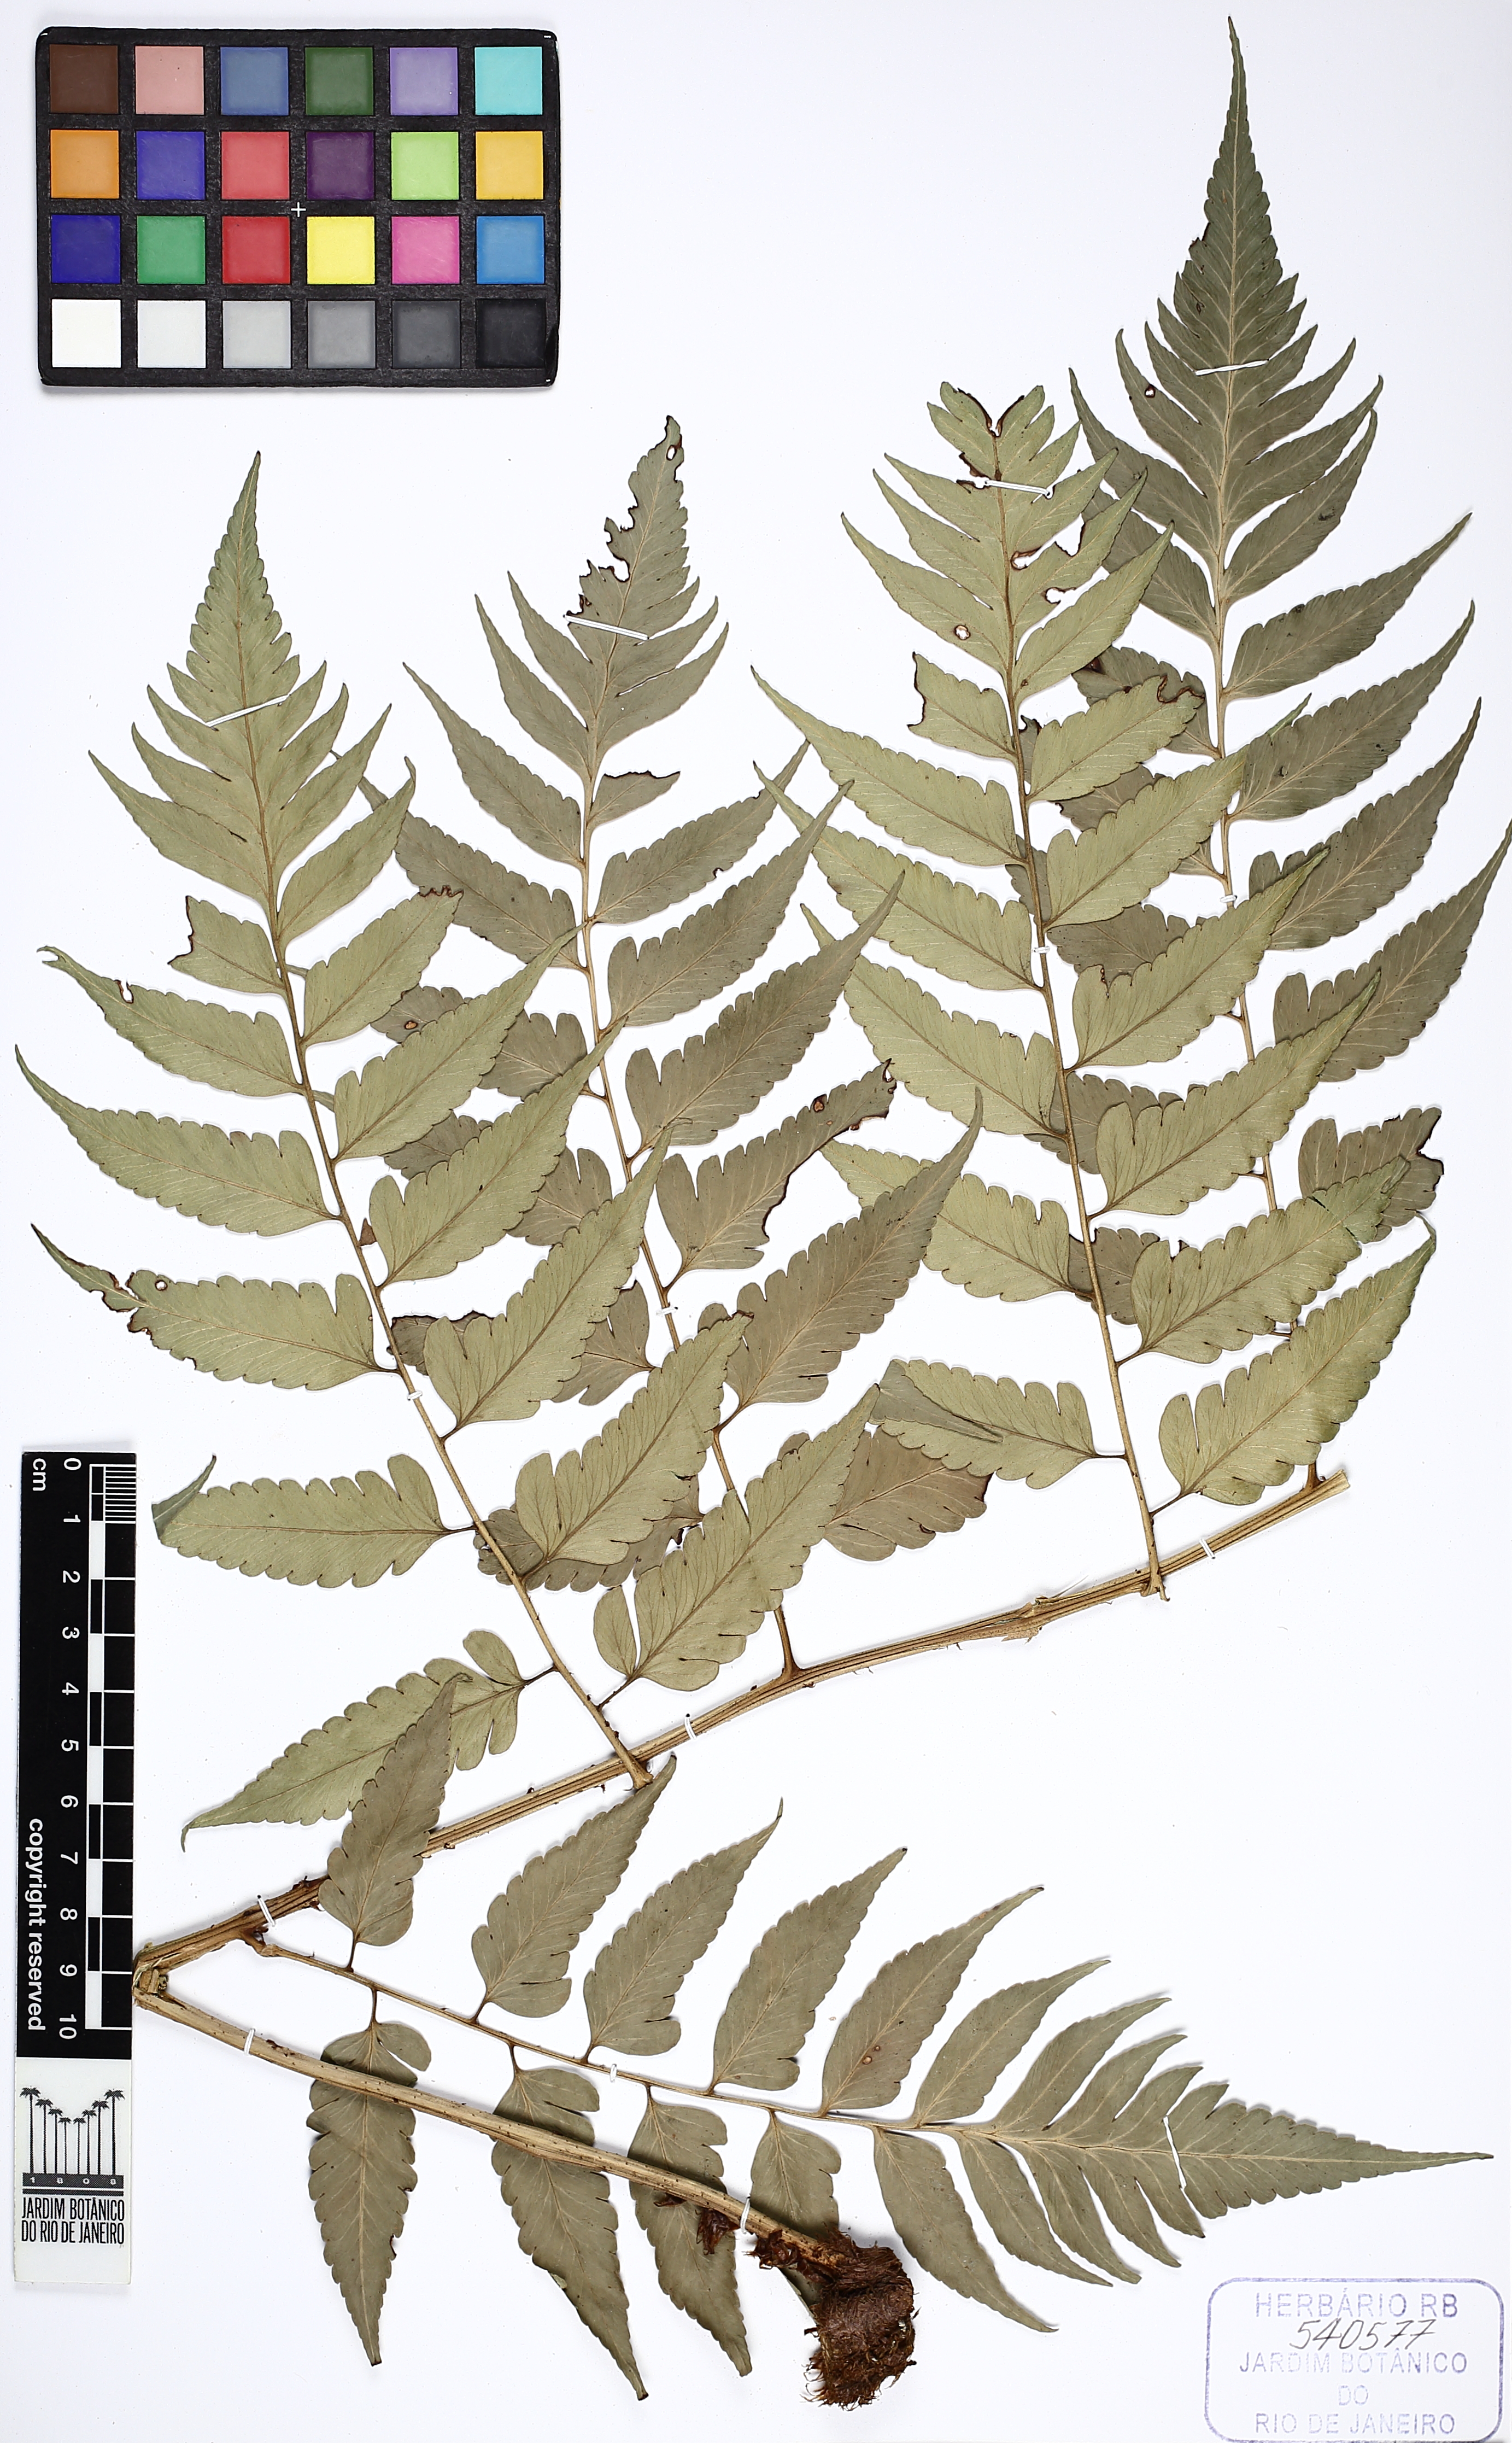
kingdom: Plantae
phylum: Tracheophyta
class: Polypodiopsida
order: Polypodiales
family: Dryopteridaceae
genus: Polybotrya
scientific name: Polybotrya semipinnata
